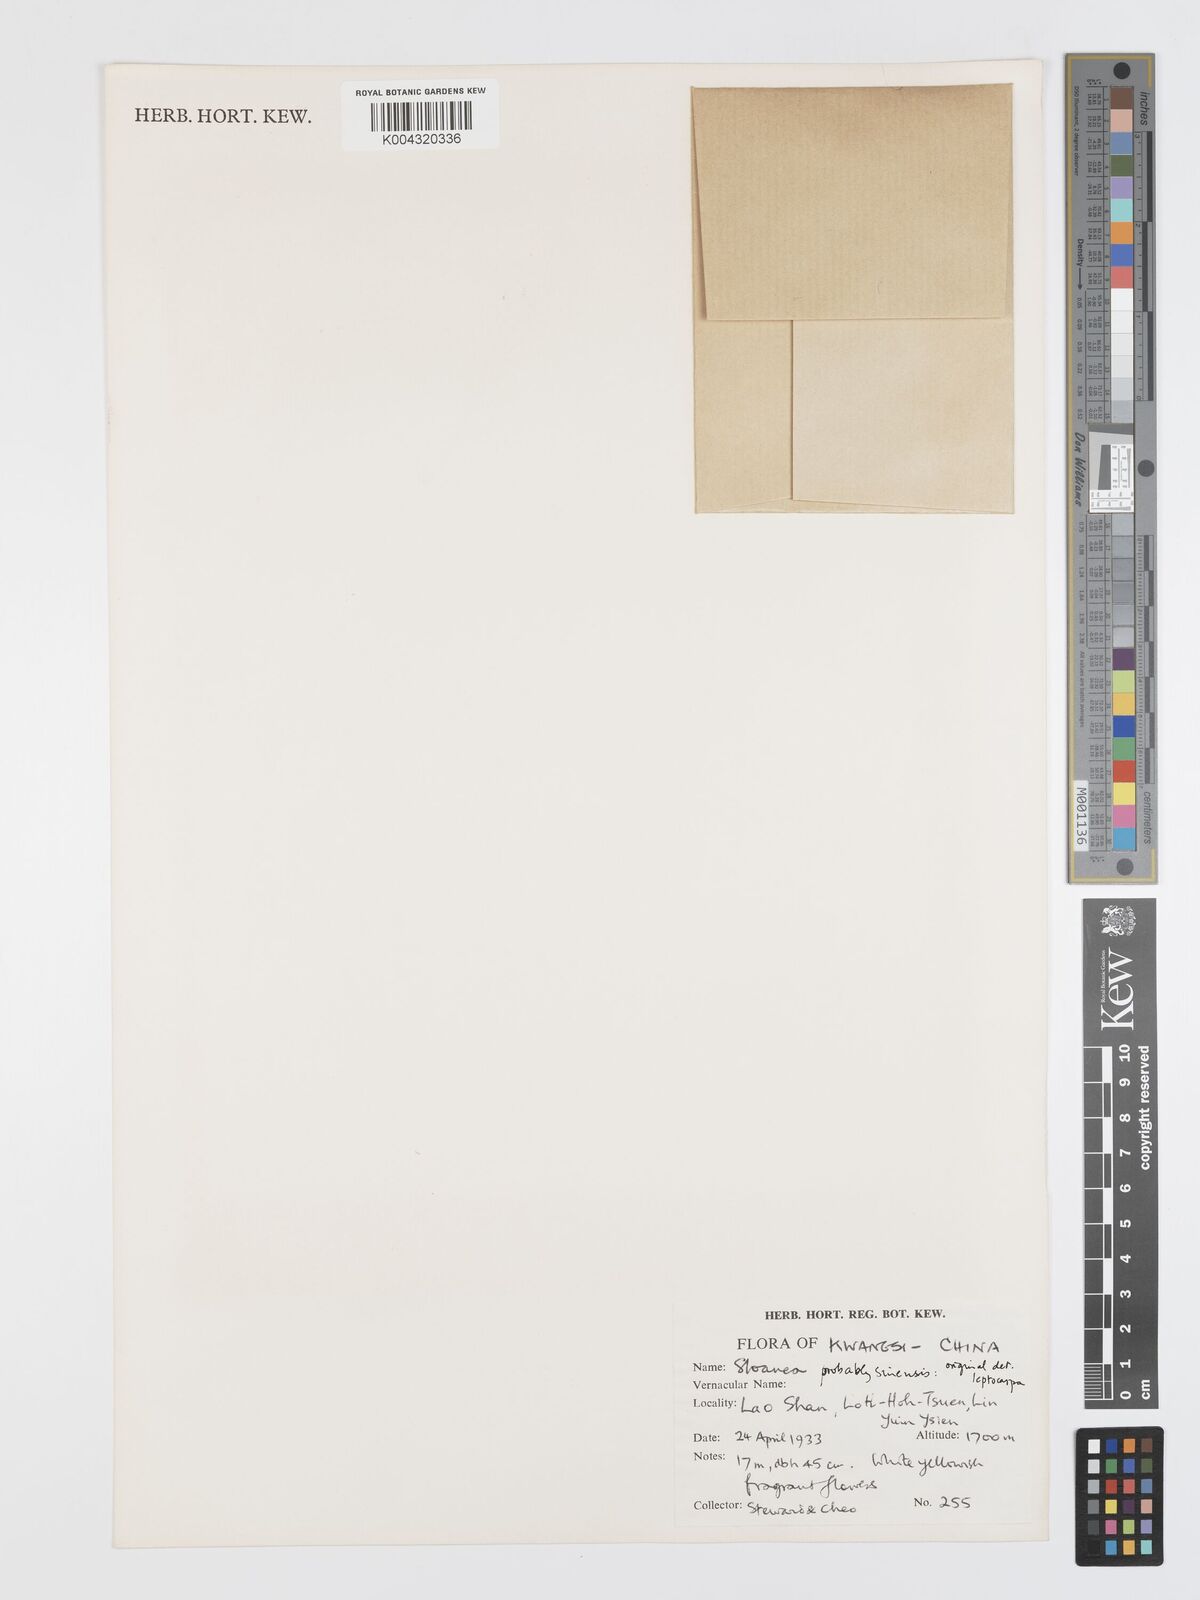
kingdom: Plantae
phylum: Tracheophyta
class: Magnoliopsida
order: Oxalidales
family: Elaeocarpaceae
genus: Sloanea
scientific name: Sloanea sinensis
